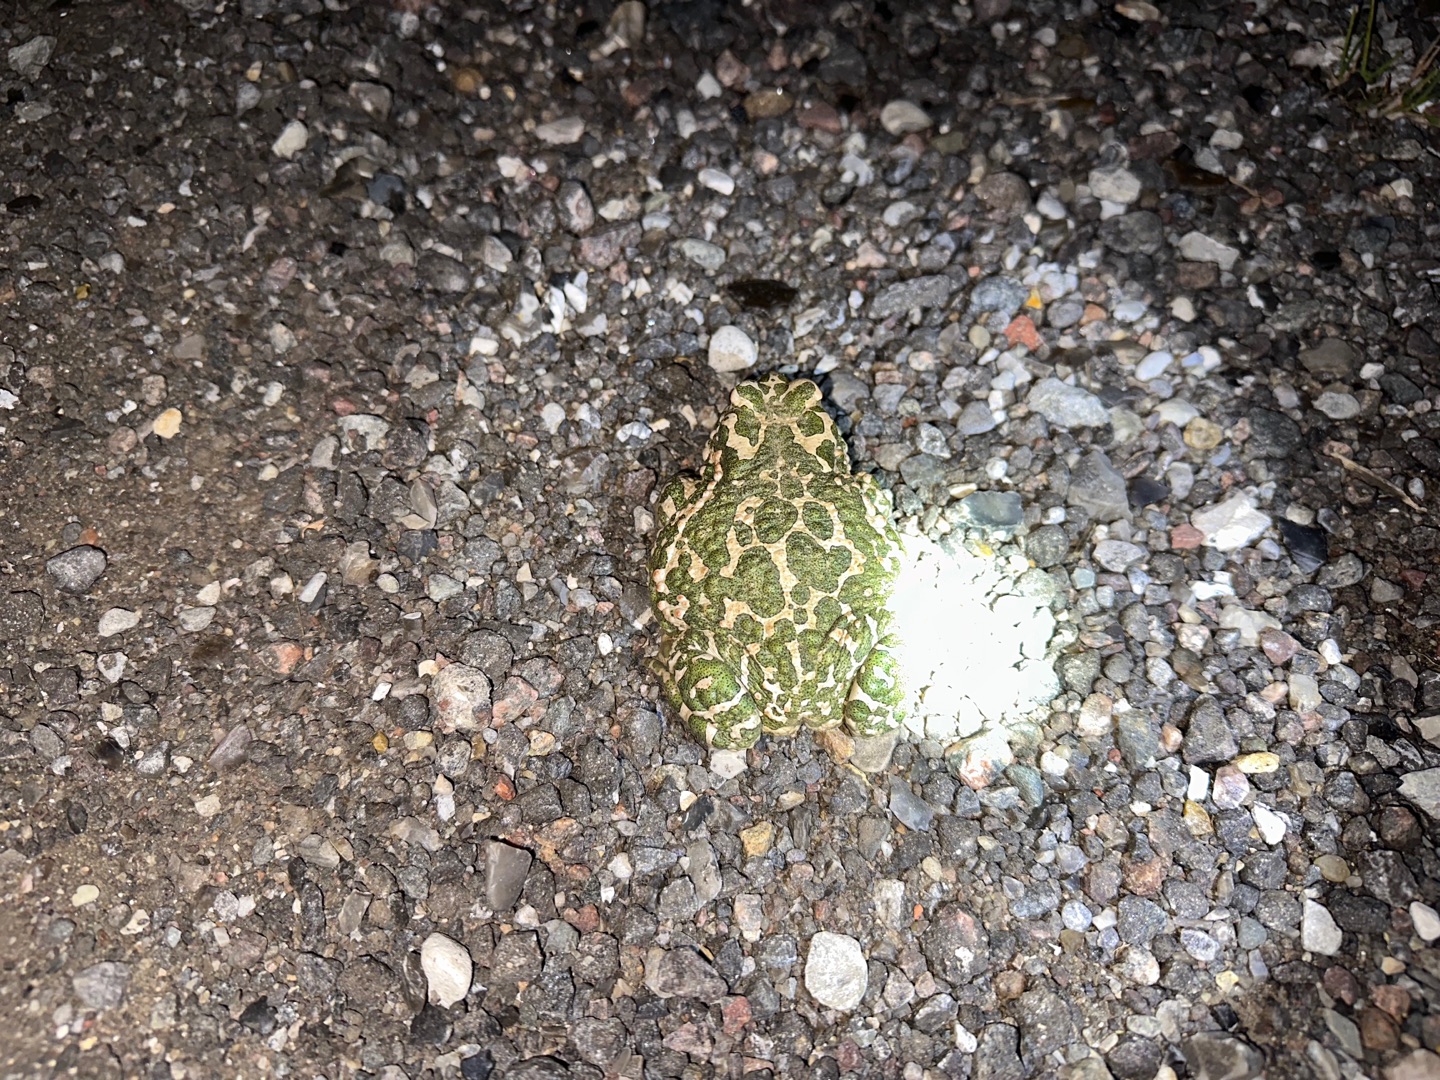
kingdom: Animalia
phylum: Chordata
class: Amphibia
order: Anura
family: Bufonidae
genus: Bufotes
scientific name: Bufotes viridis
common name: Grønbroget tudse
